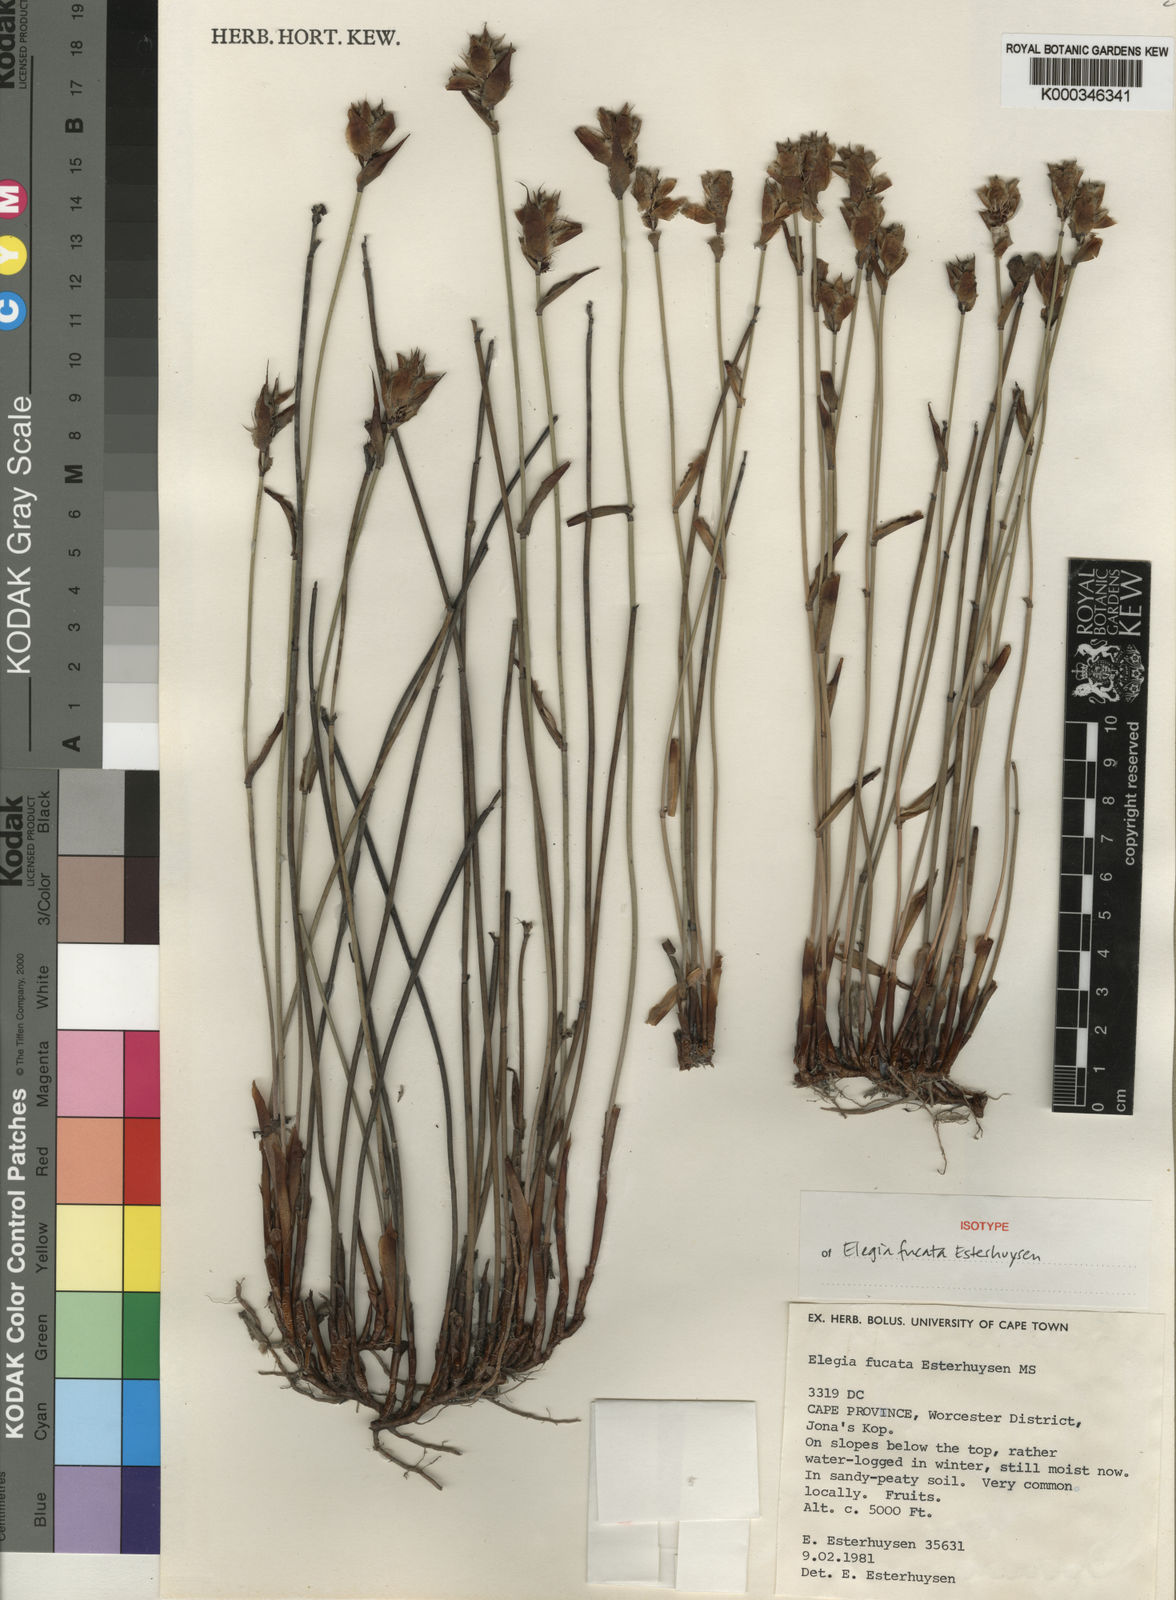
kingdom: Plantae
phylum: Tracheophyta
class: Liliopsida
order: Poales
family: Restionaceae
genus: Elegia
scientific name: Elegia fucata
